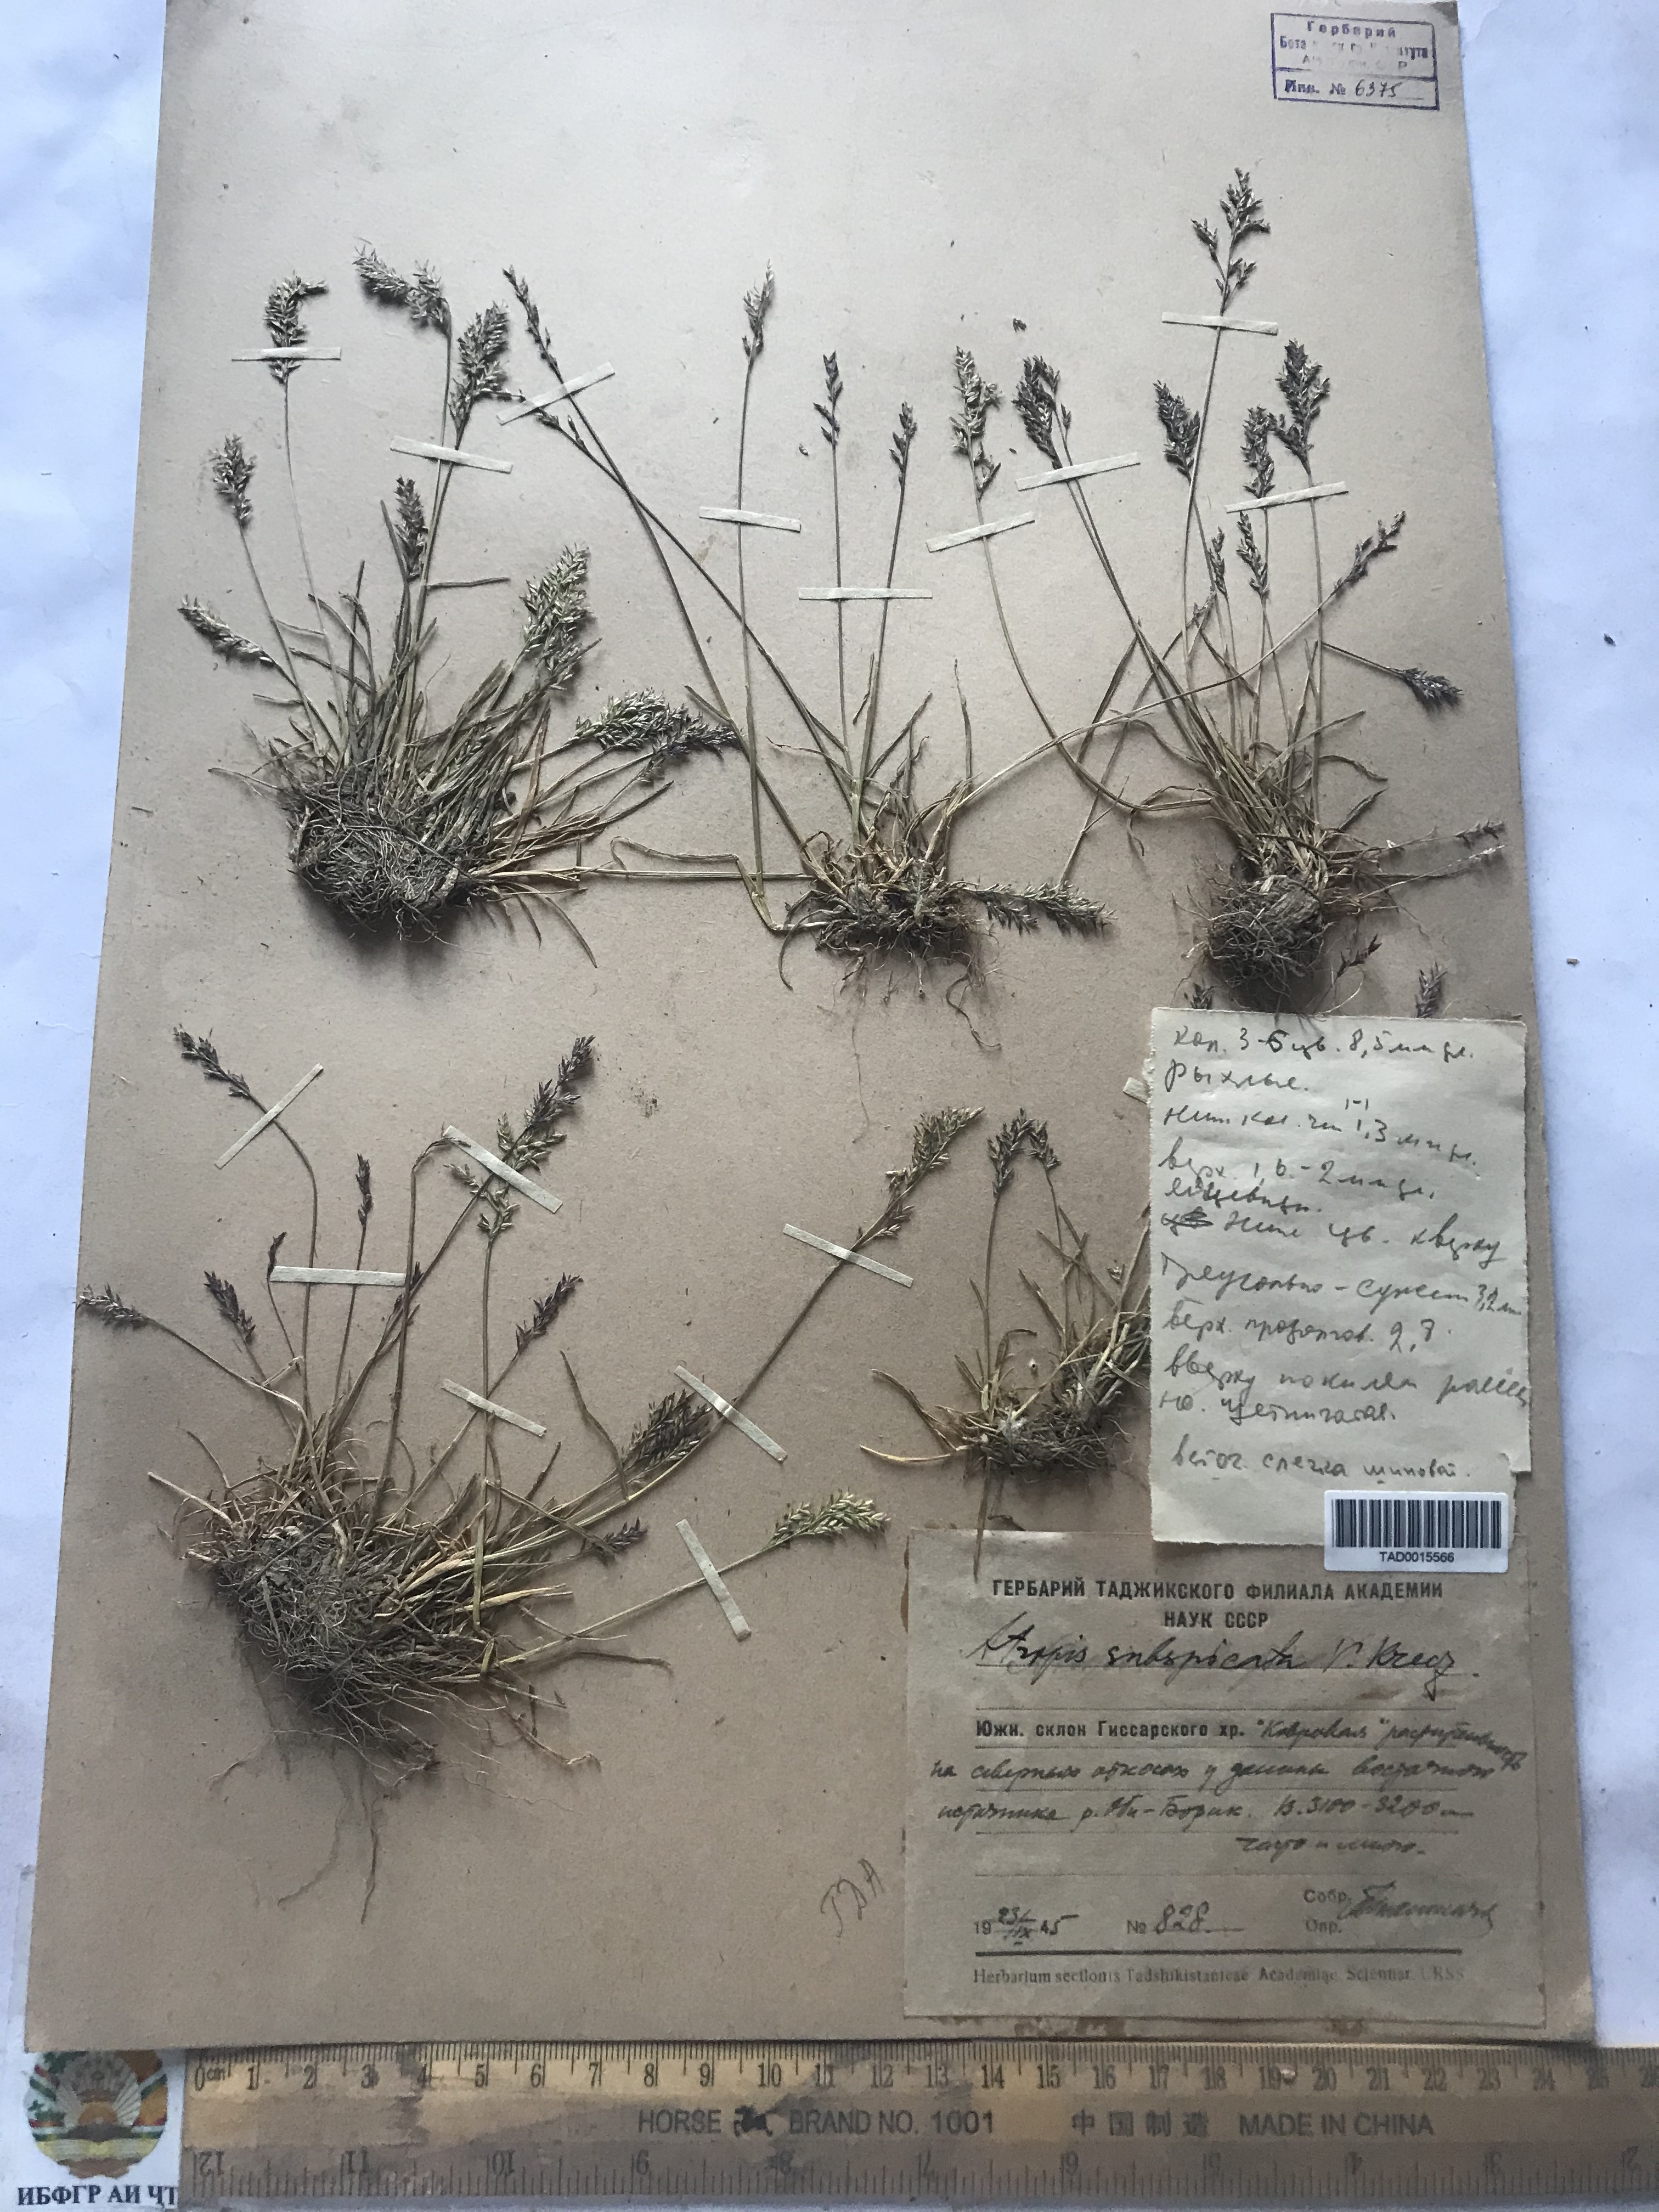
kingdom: Plantae
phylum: Tracheophyta
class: Liliopsida
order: Poales
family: Poaceae
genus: Puccinellia
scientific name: Puccinellia subspicata
